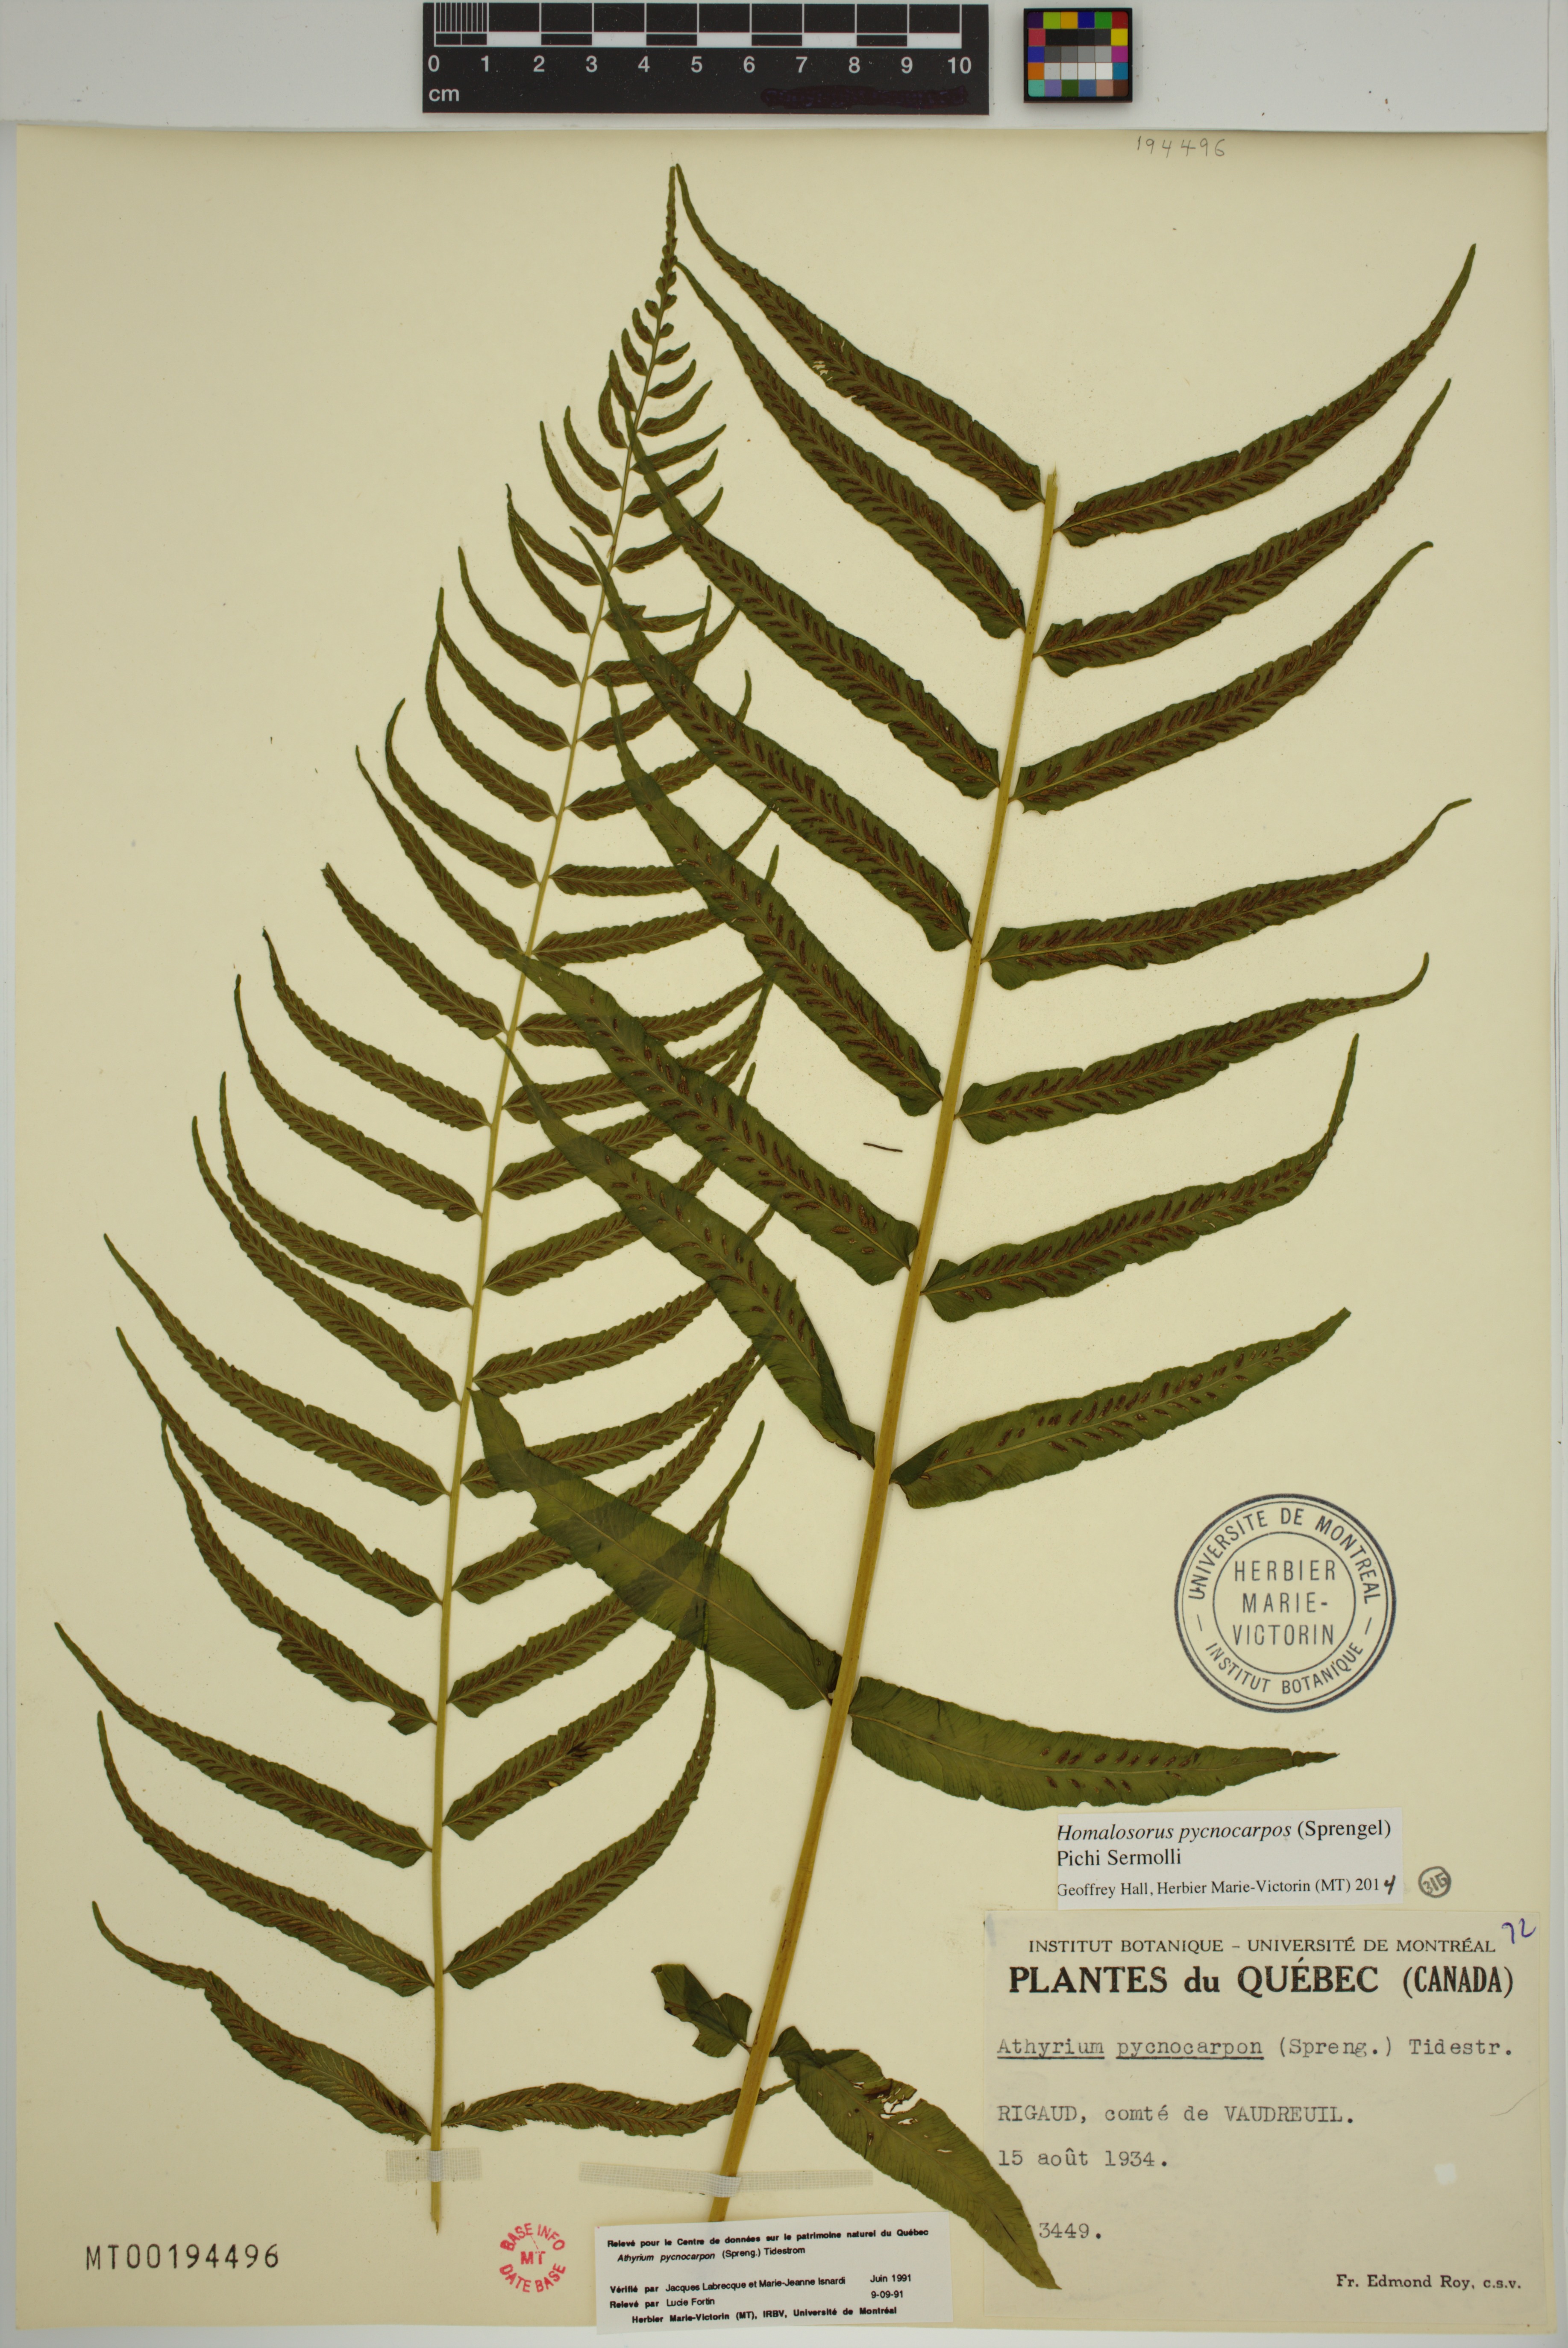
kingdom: Plantae
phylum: Tracheophyta
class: Polypodiopsida
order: Polypodiales
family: Diplaziopsidaceae
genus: Homalosorus
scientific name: Homalosorus pycnocarpos
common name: Glade fern
